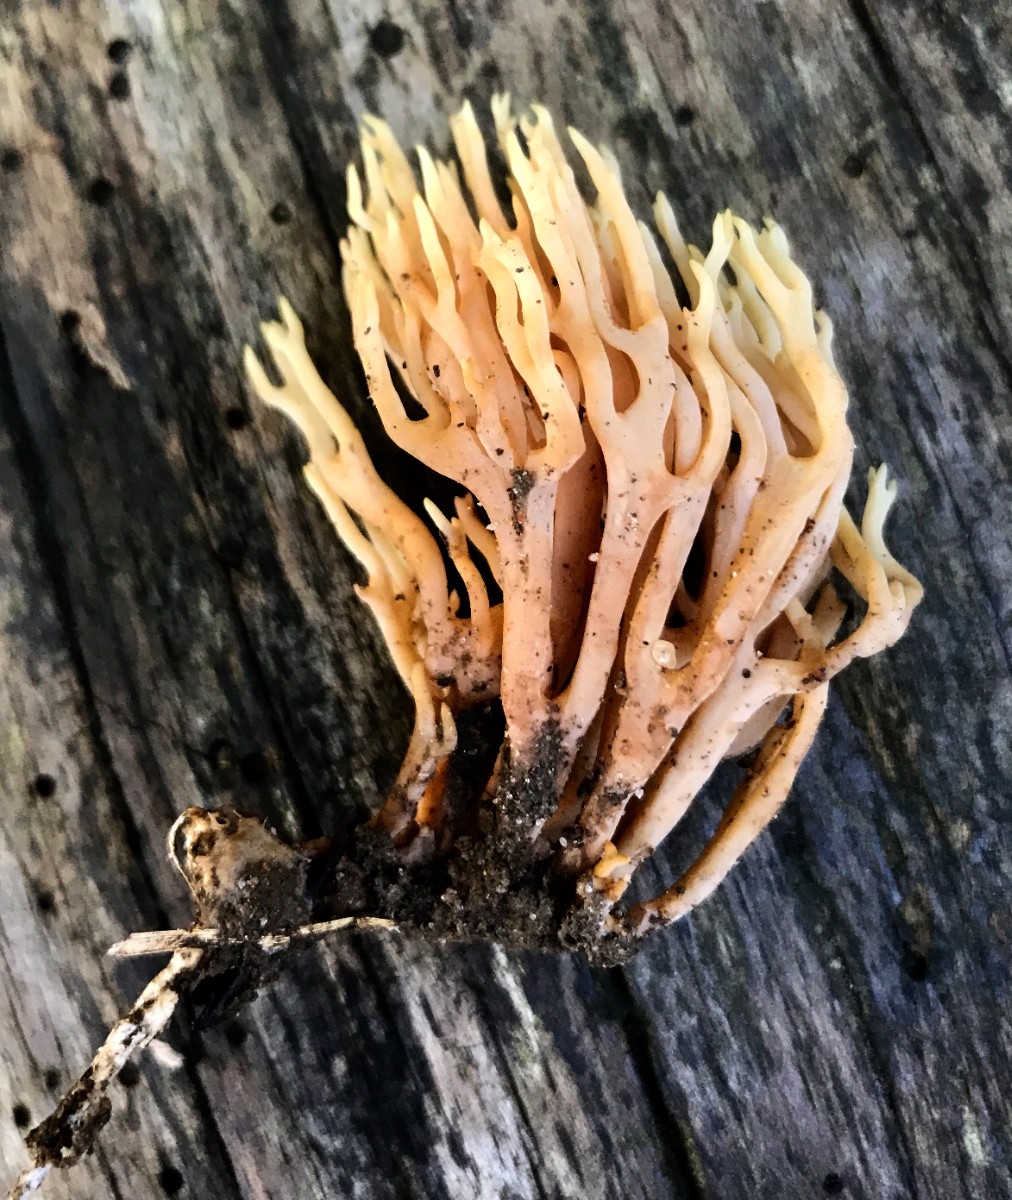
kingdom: Fungi
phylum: Basidiomycota
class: Agaricomycetes
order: Gomphales
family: Gomphaceae
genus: Ramaria
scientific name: Ramaria stricta
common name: rank koralsvamp
